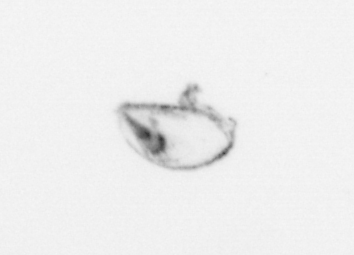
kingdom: Animalia
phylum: Mollusca
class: Bivalvia
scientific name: Bivalvia
